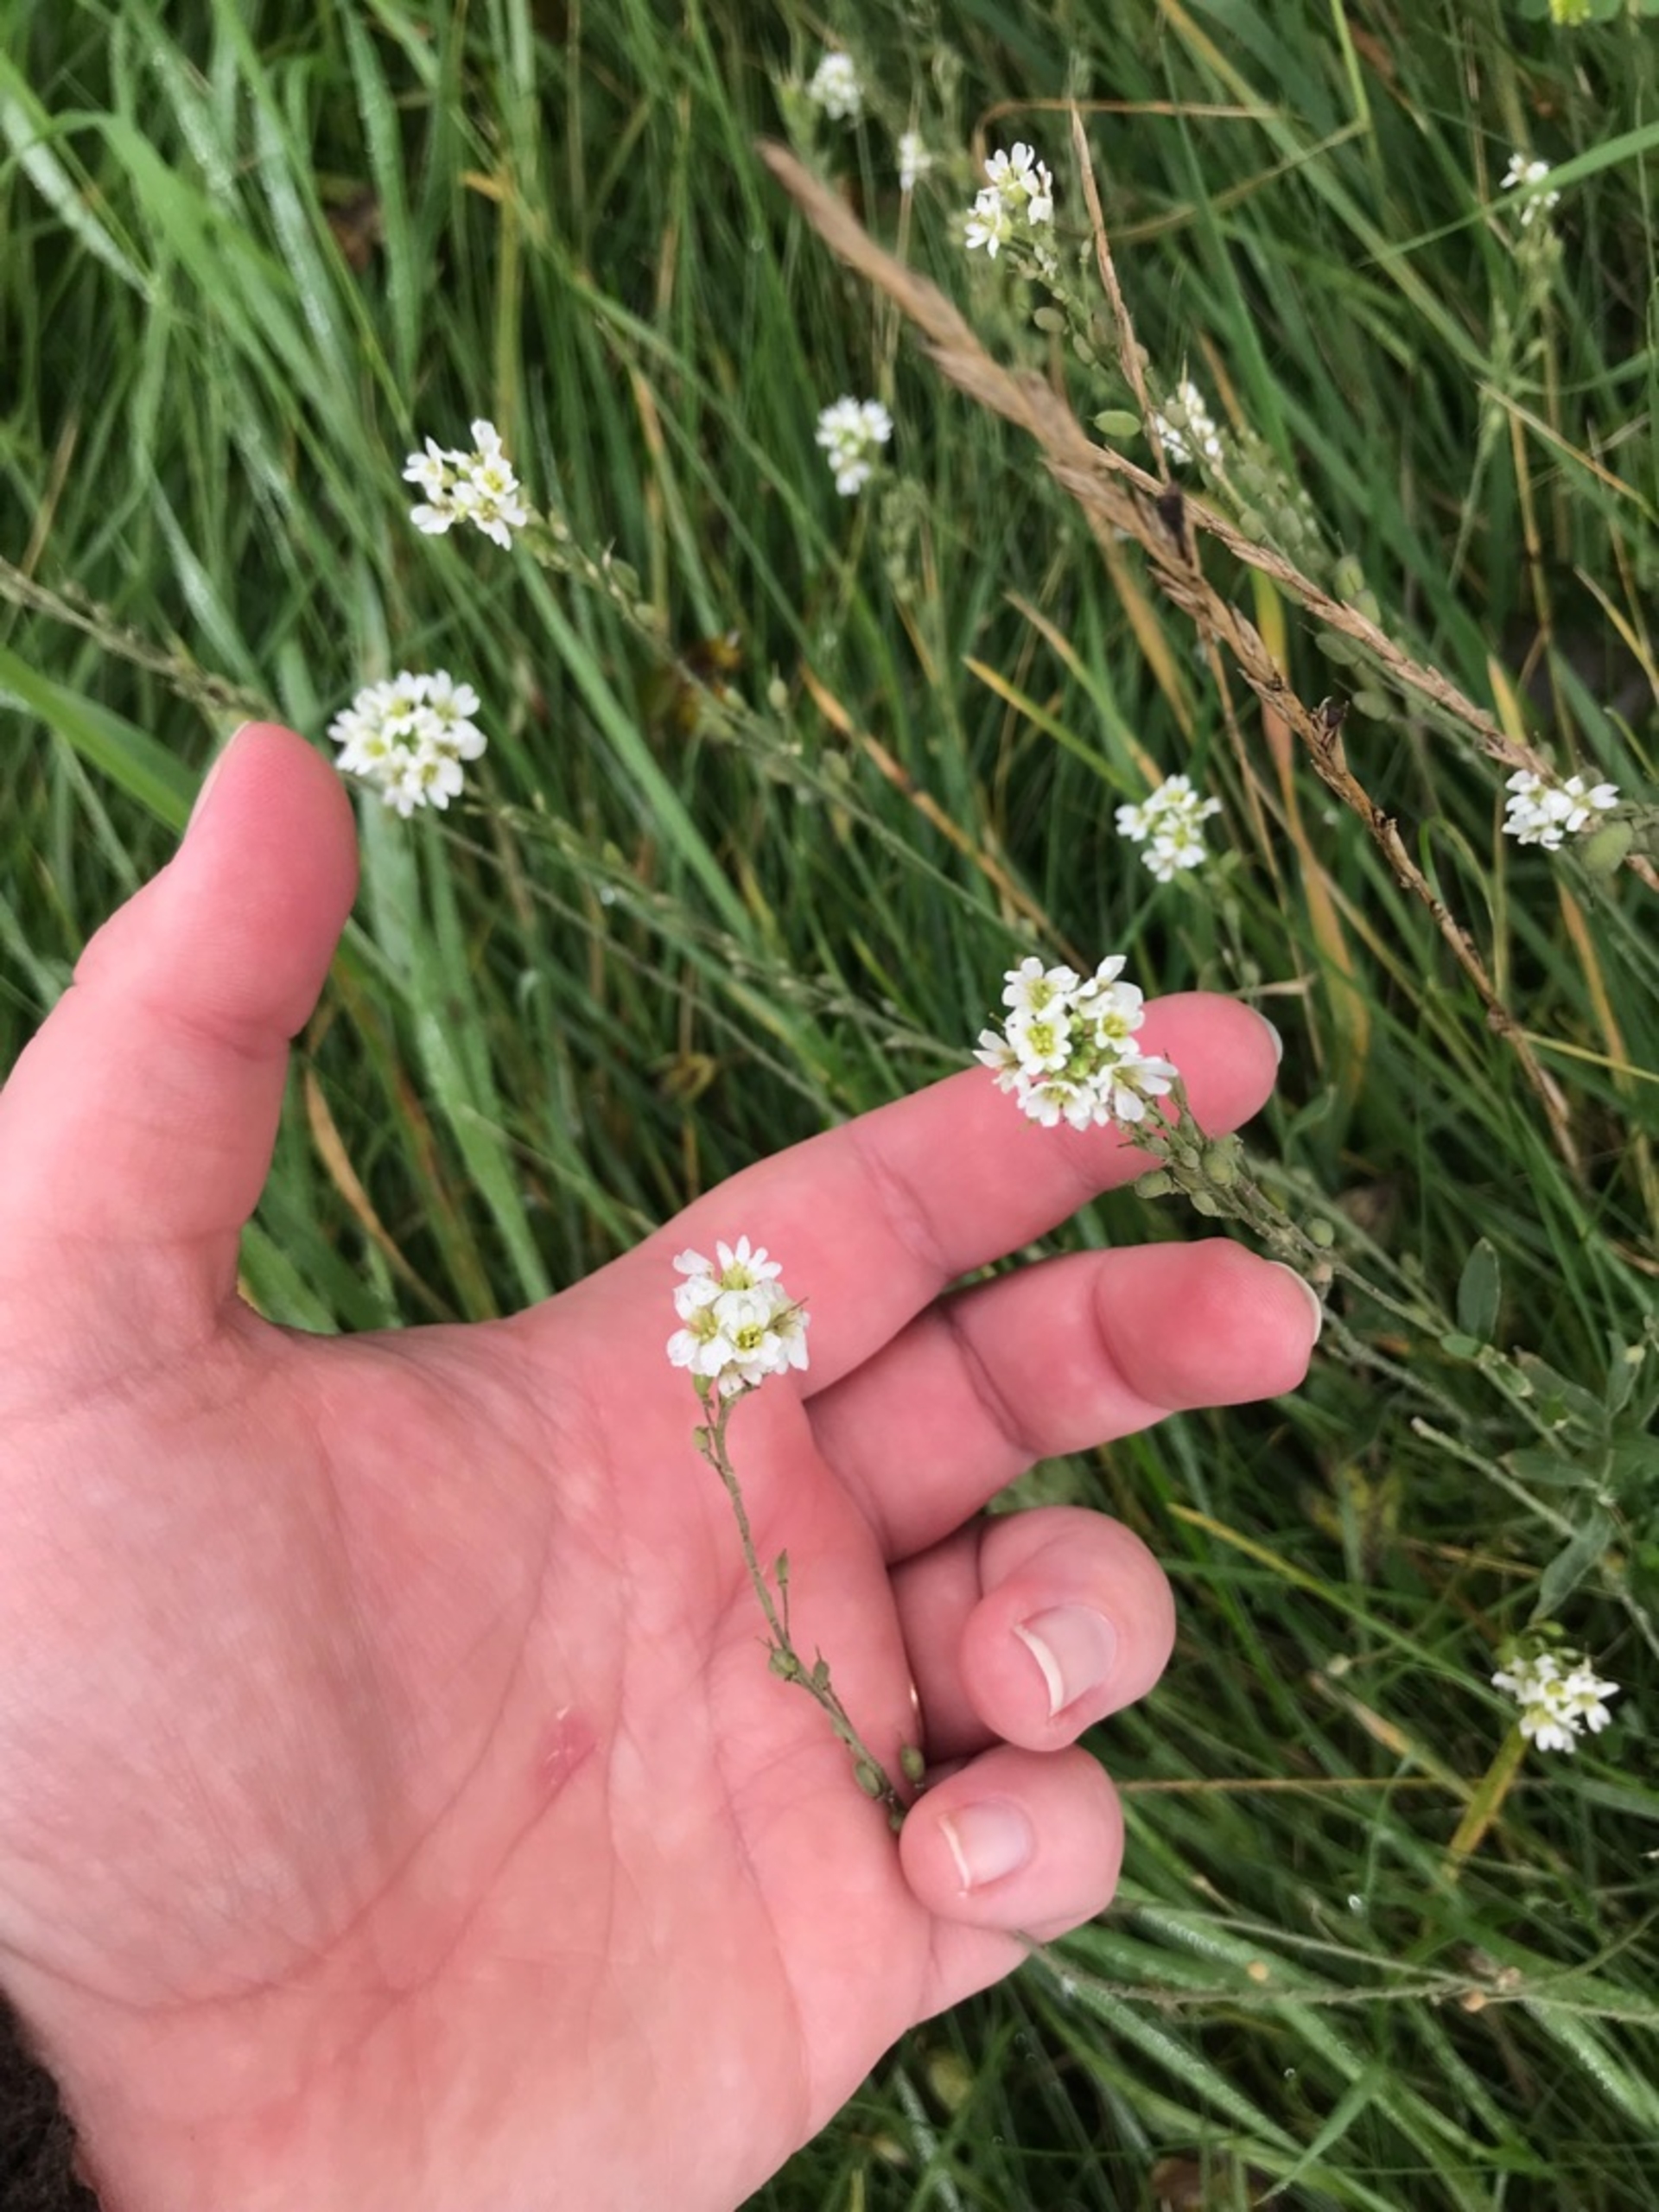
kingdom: Plantae
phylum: Tracheophyta
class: Magnoliopsida
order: Brassicales
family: Brassicaceae
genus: Berteroa
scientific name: Berteroa incana
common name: Kløvplade
